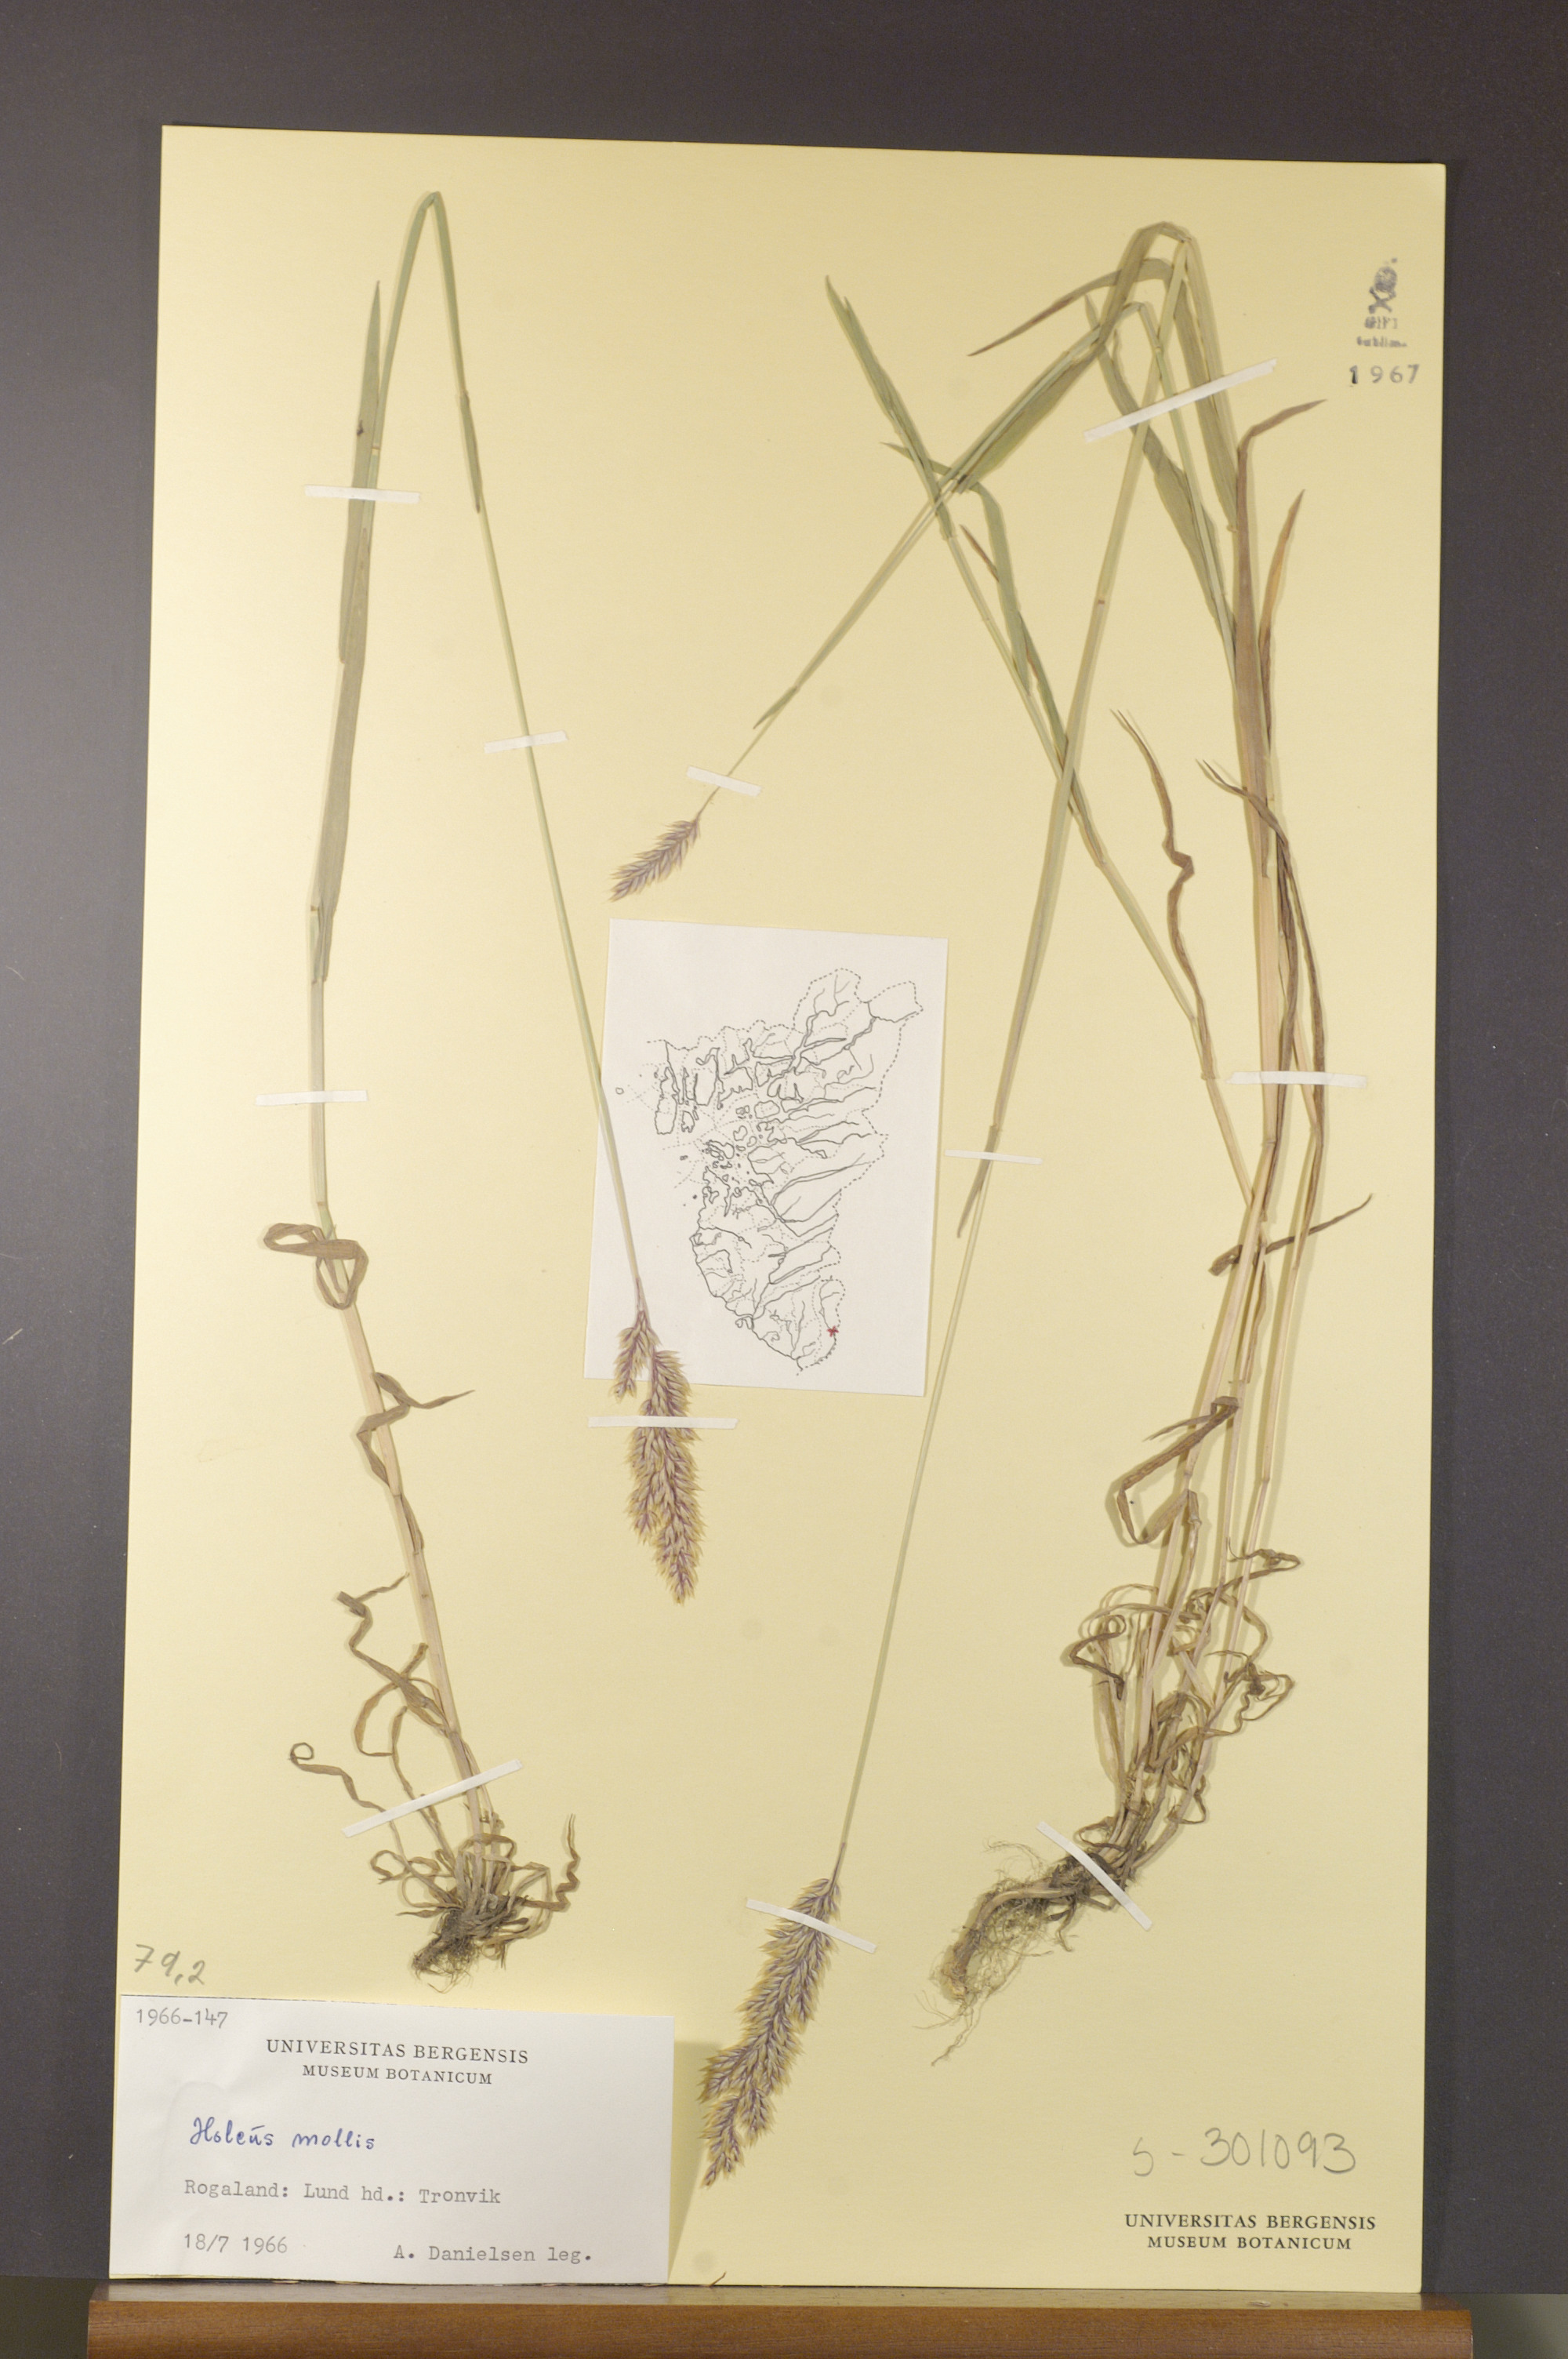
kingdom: Plantae
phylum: Tracheophyta
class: Liliopsida
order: Poales
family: Poaceae
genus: Holcus
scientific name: Holcus mollis
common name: Creeping velvetgrass
